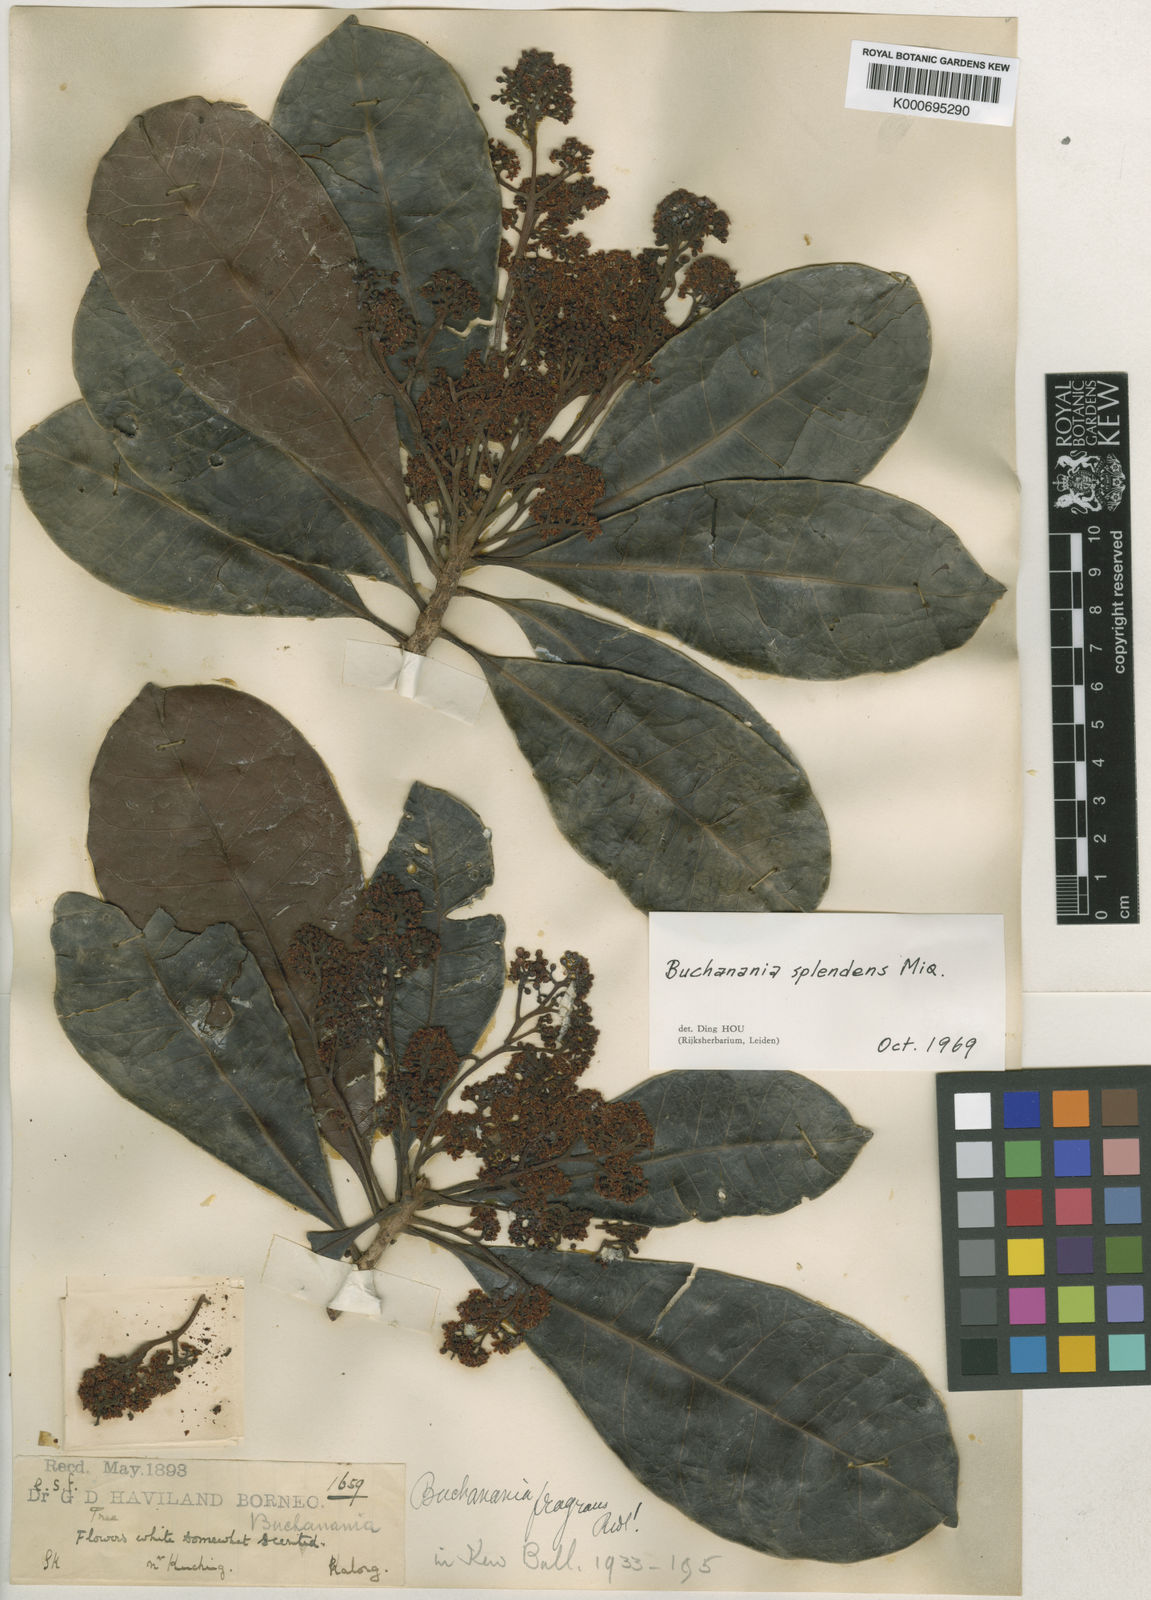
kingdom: Plantae
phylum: Tracheophyta
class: Magnoliopsida
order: Sapindales
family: Anacardiaceae
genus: Buchanania
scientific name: Buchanania splendens
